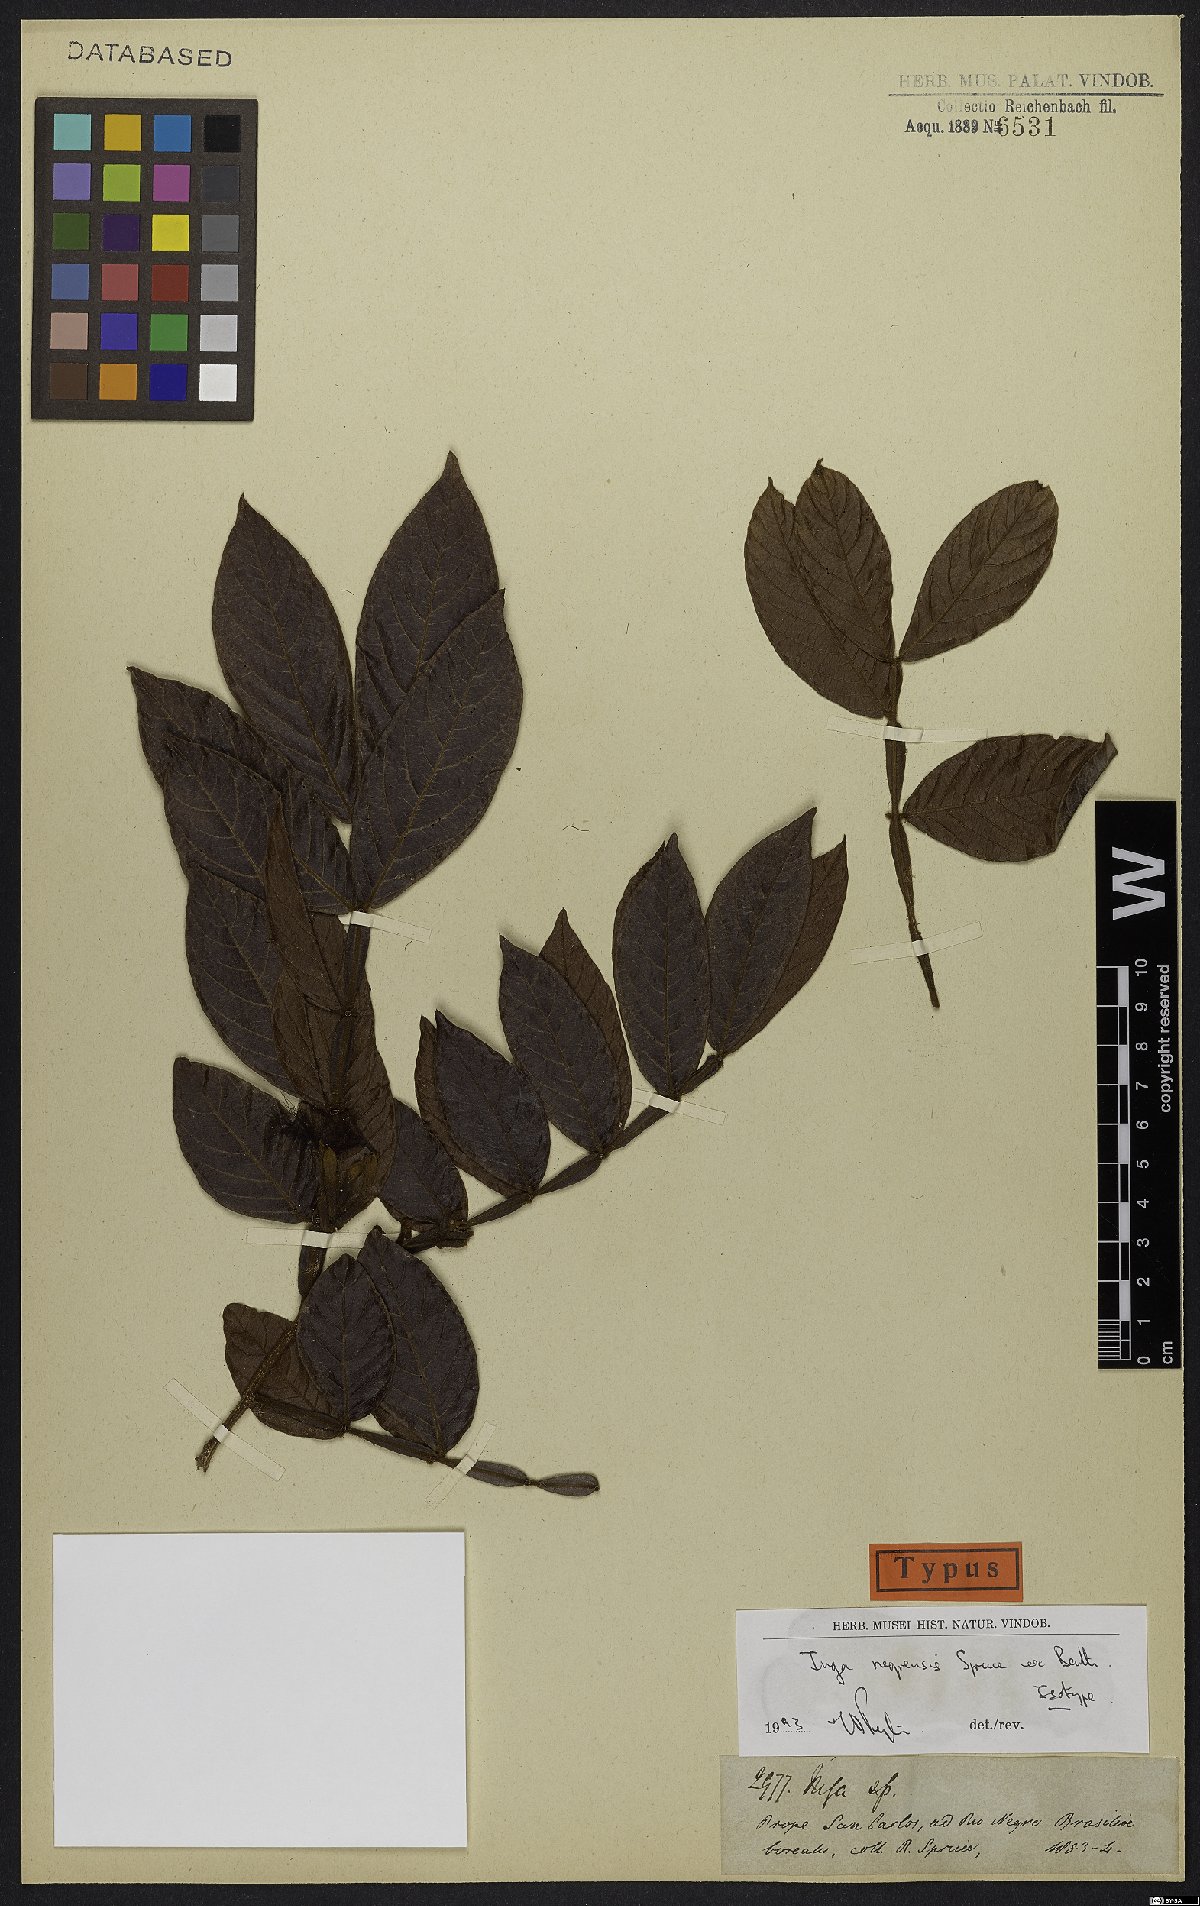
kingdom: Plantae
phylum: Tracheophyta
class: Magnoliopsida
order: Fabales
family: Fabaceae
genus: Inga
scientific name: Inga micradenia
